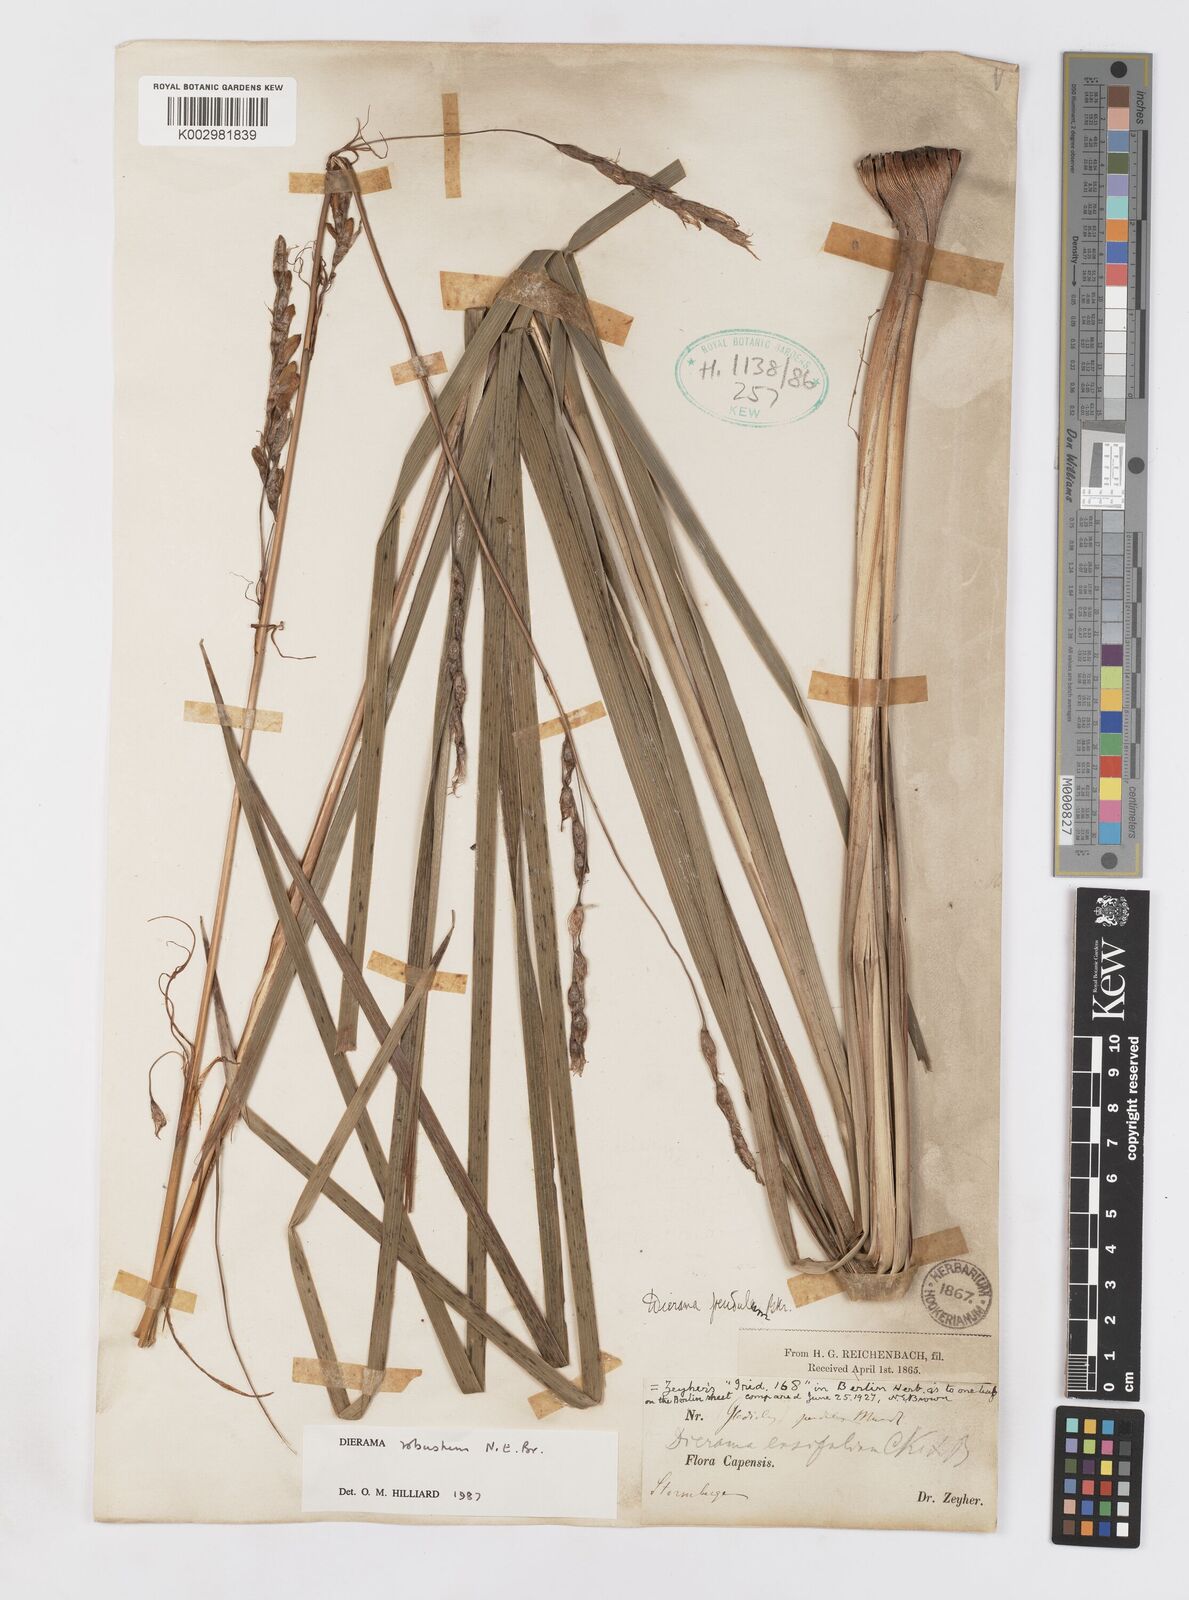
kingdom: Plantae
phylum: Tracheophyta
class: Liliopsida
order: Asparagales
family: Iridaceae
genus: Dierama
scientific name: Dierama robustum
